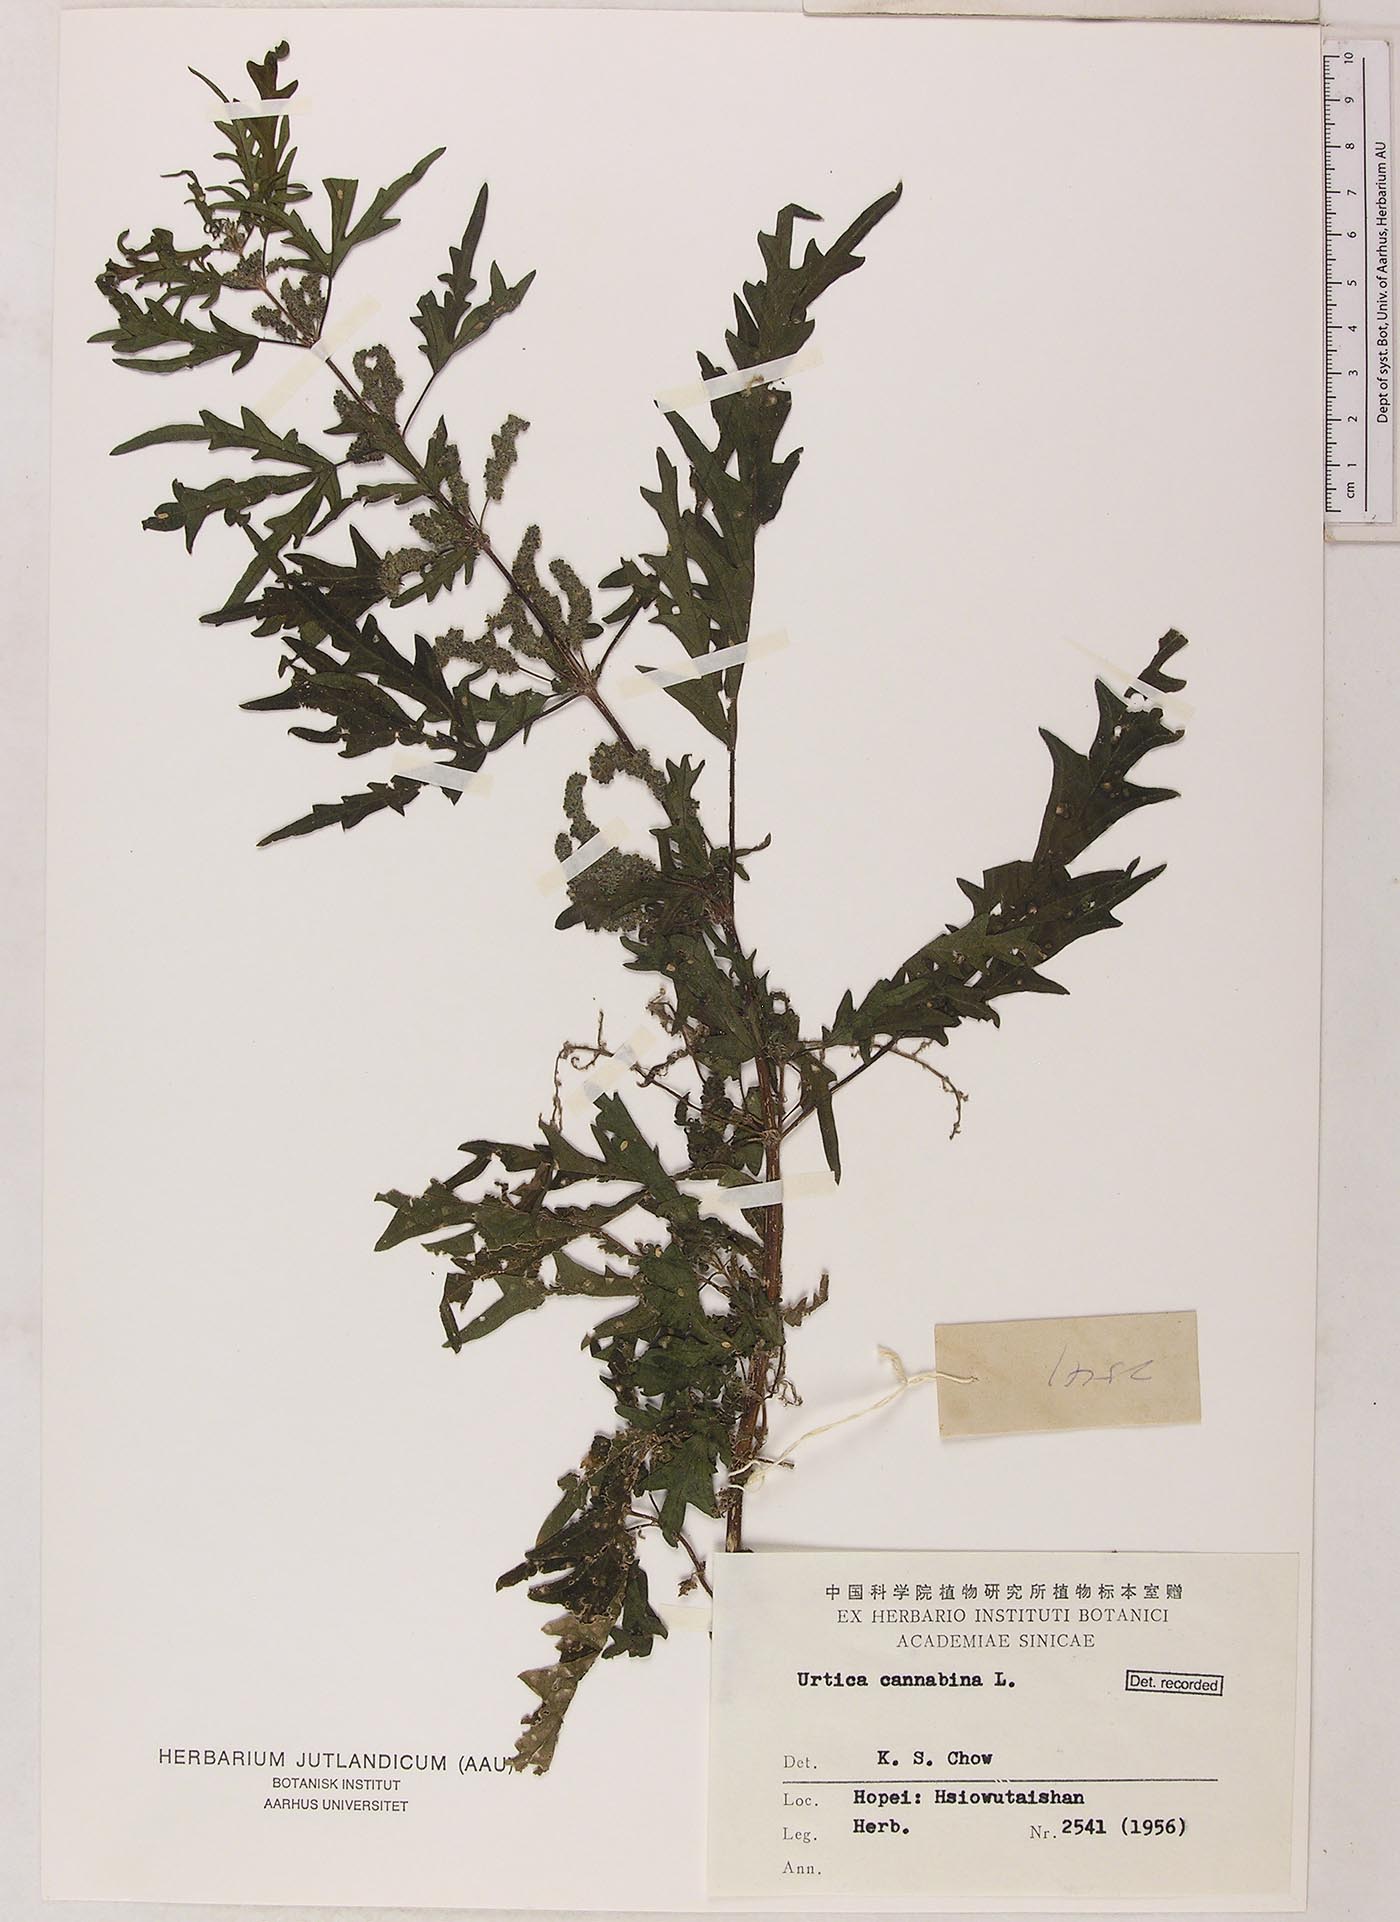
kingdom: Plantae
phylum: Tracheophyta
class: Magnoliopsida
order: Rosales
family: Urticaceae
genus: Urtica
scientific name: Urtica cannabina
